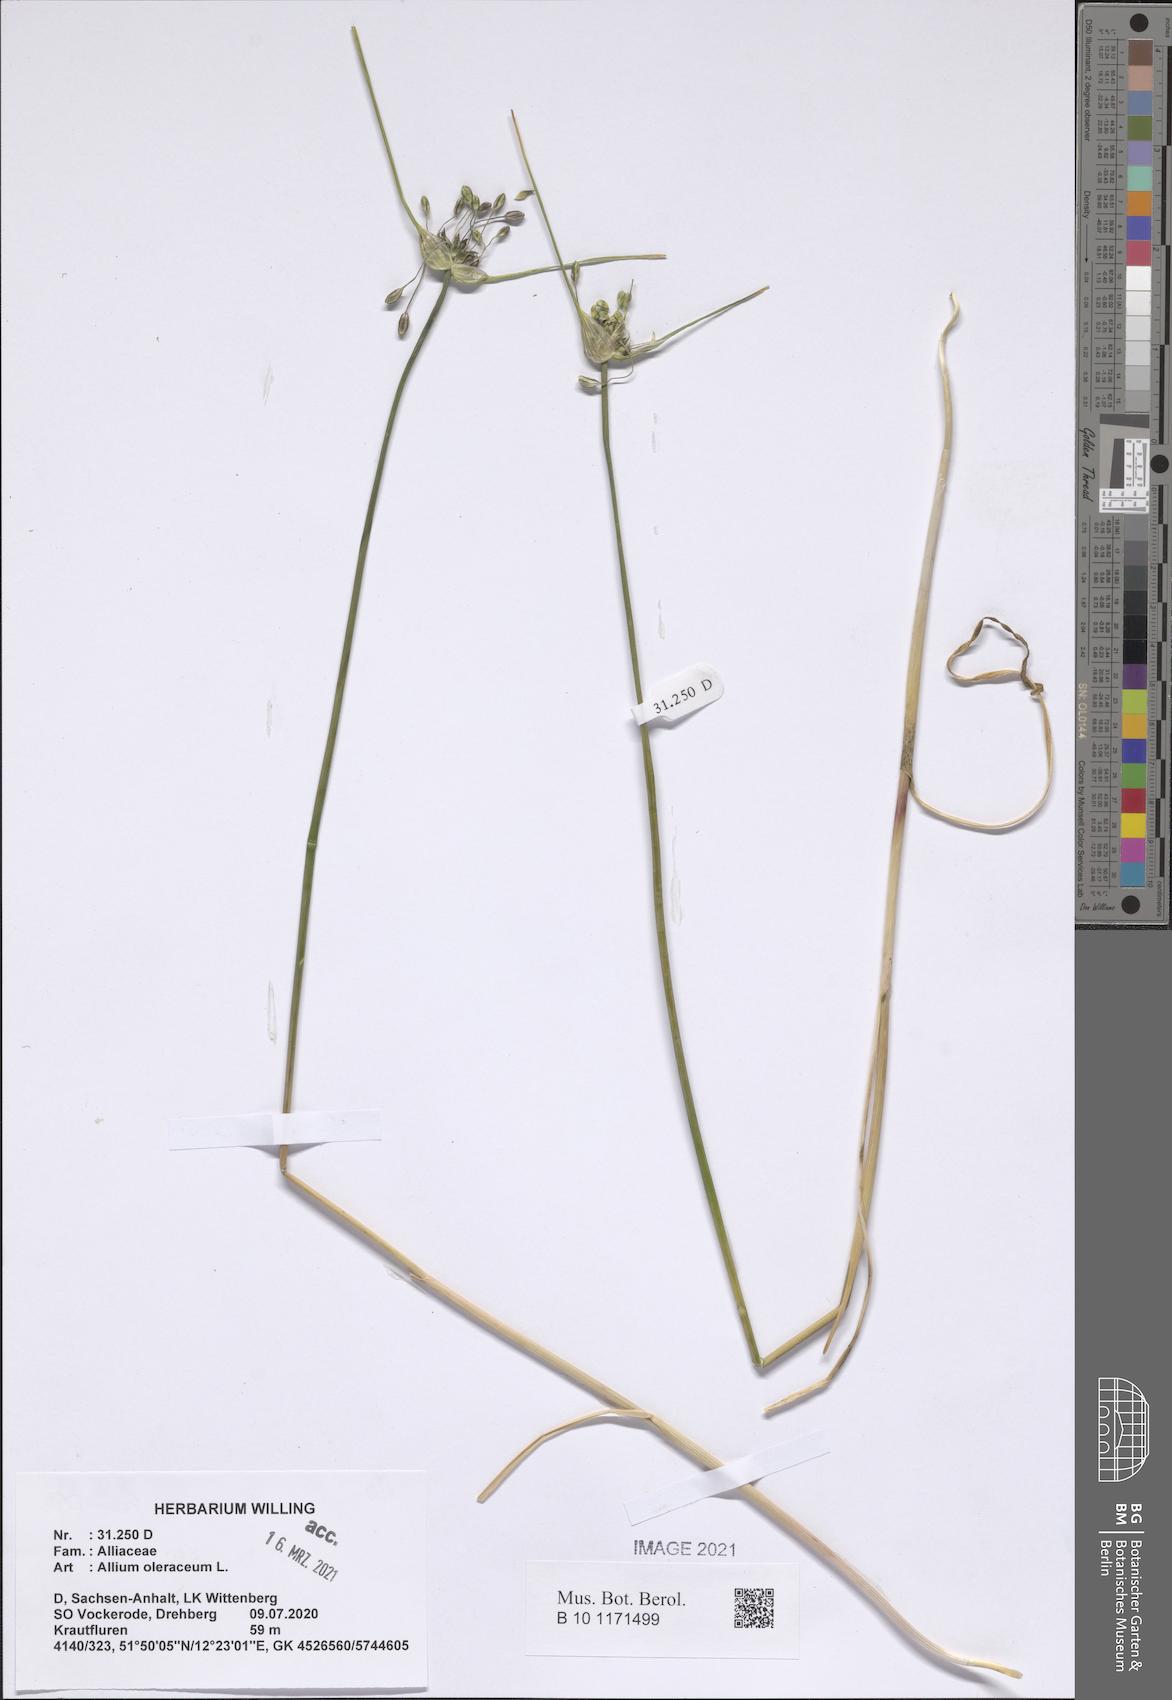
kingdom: Plantae
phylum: Tracheophyta
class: Liliopsida
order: Asparagales
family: Amaryllidaceae
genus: Allium
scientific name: Allium oleraceum
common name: Field garlic
